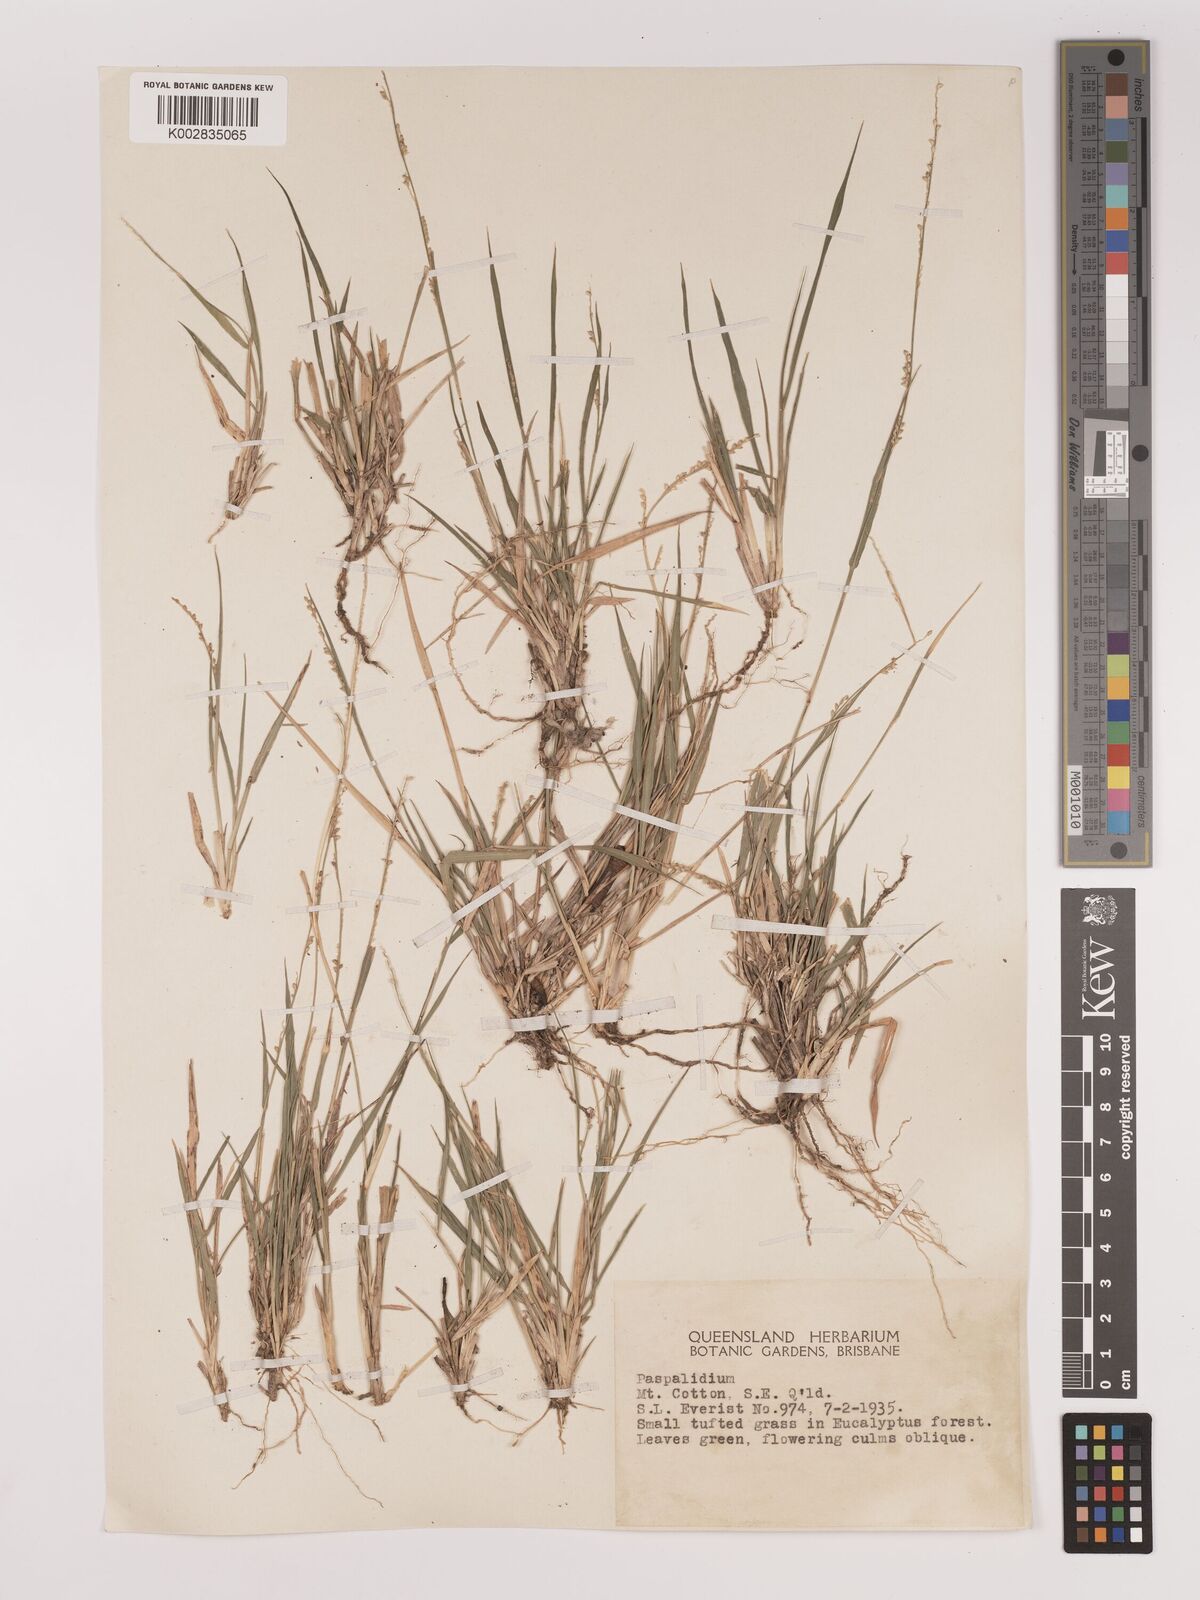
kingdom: Plantae
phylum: Tracheophyta
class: Liliopsida
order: Poales
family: Poaceae
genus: Setaria
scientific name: Setaria
